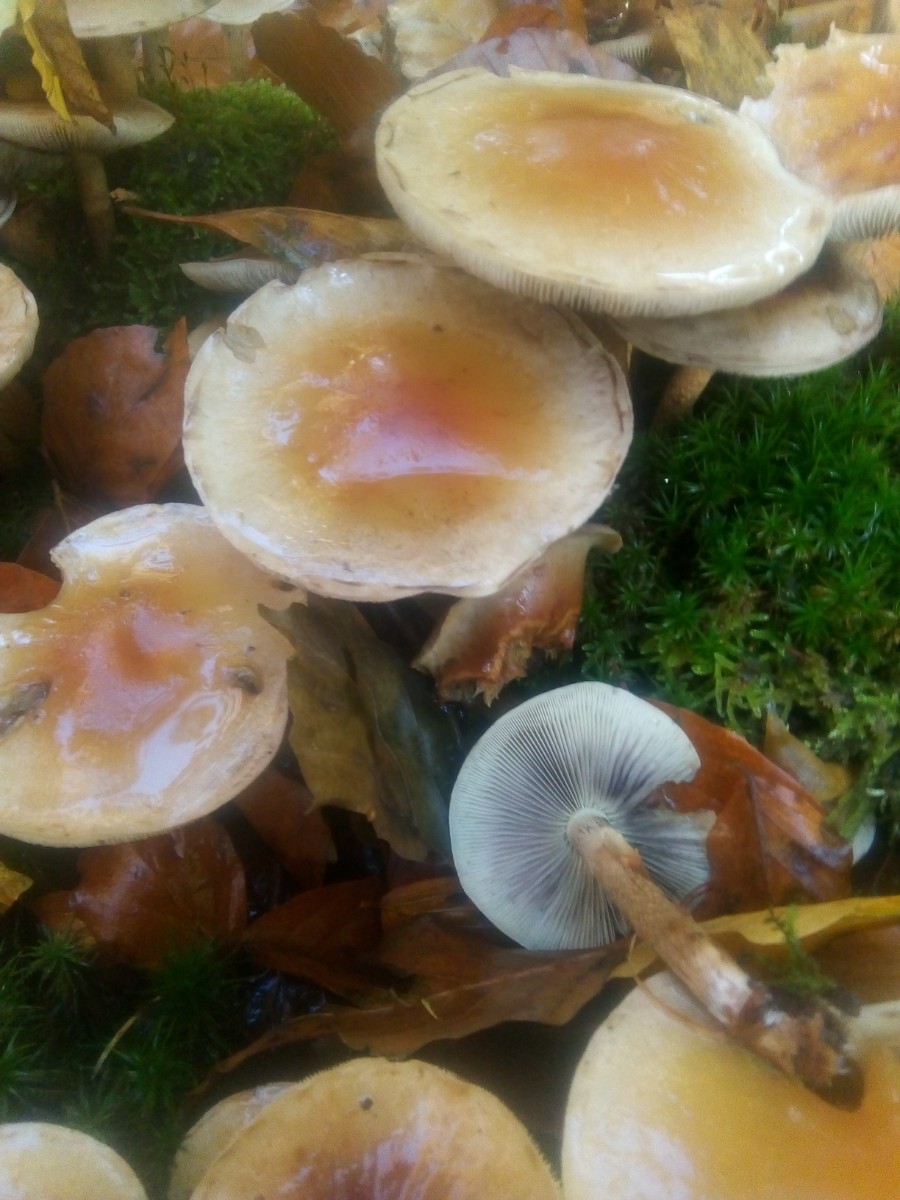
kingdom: Fungi
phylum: Basidiomycota
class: Agaricomycetes
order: Agaricales
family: Strophariaceae
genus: Hypholoma
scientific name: Hypholoma lateritium
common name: teglrød svovlhat
